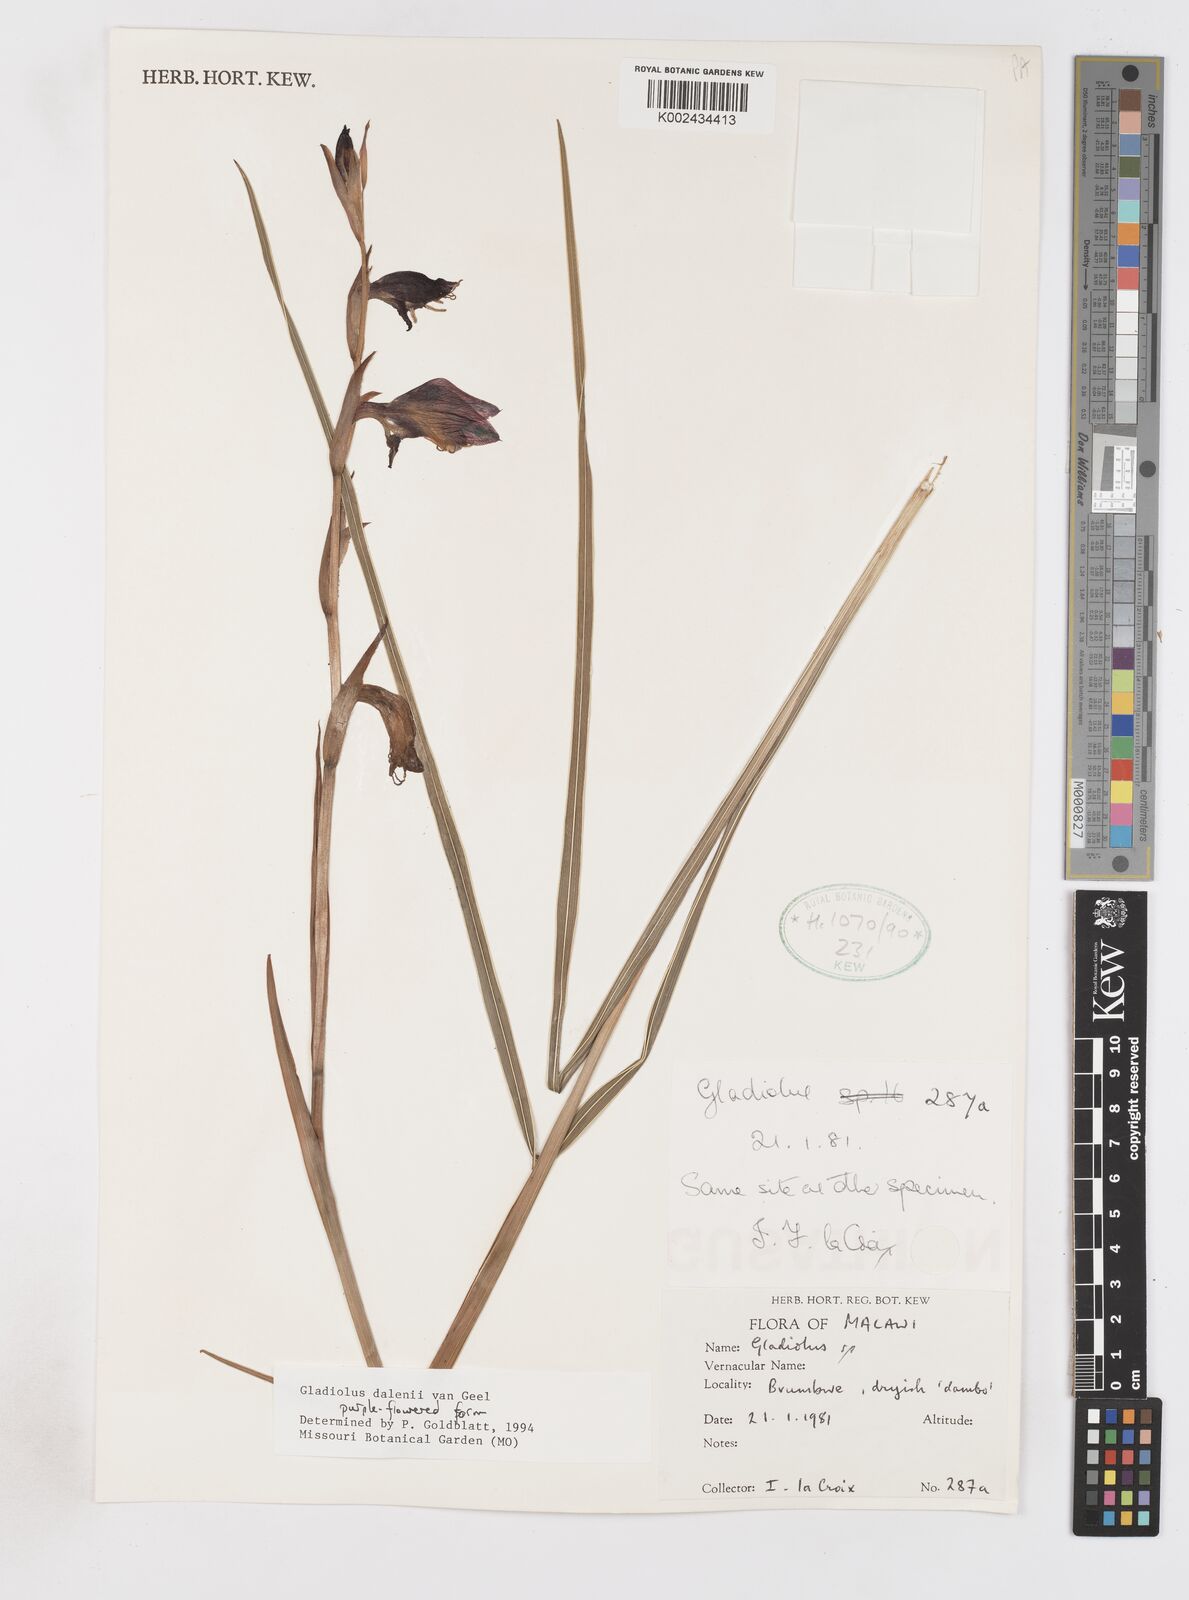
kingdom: Plantae
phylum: Tracheophyta
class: Liliopsida
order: Asparagales
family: Iridaceae
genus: Gladiolus
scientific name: Gladiolus dalenii
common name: Cornflag
